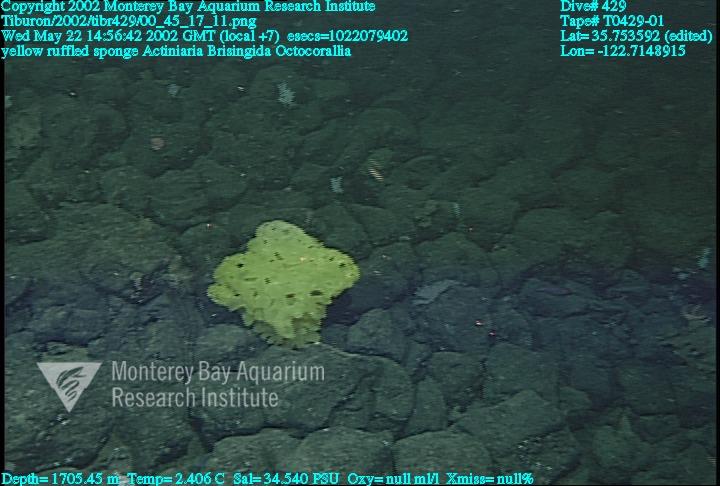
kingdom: Animalia
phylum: Porifera
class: Hexactinellida
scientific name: Hexactinellida
